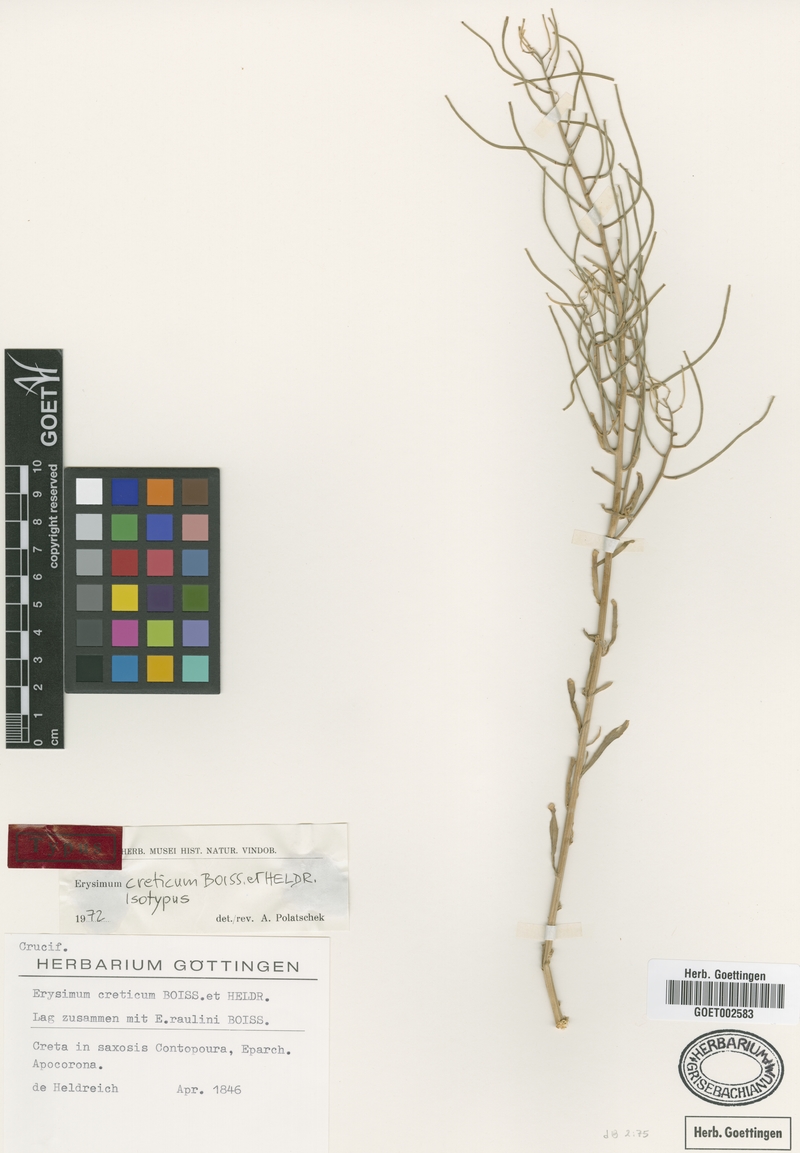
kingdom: Plantae
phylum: Tracheophyta
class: Magnoliopsida
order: Brassicales
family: Brassicaceae
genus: Erysimum
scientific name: Erysimum creticum
